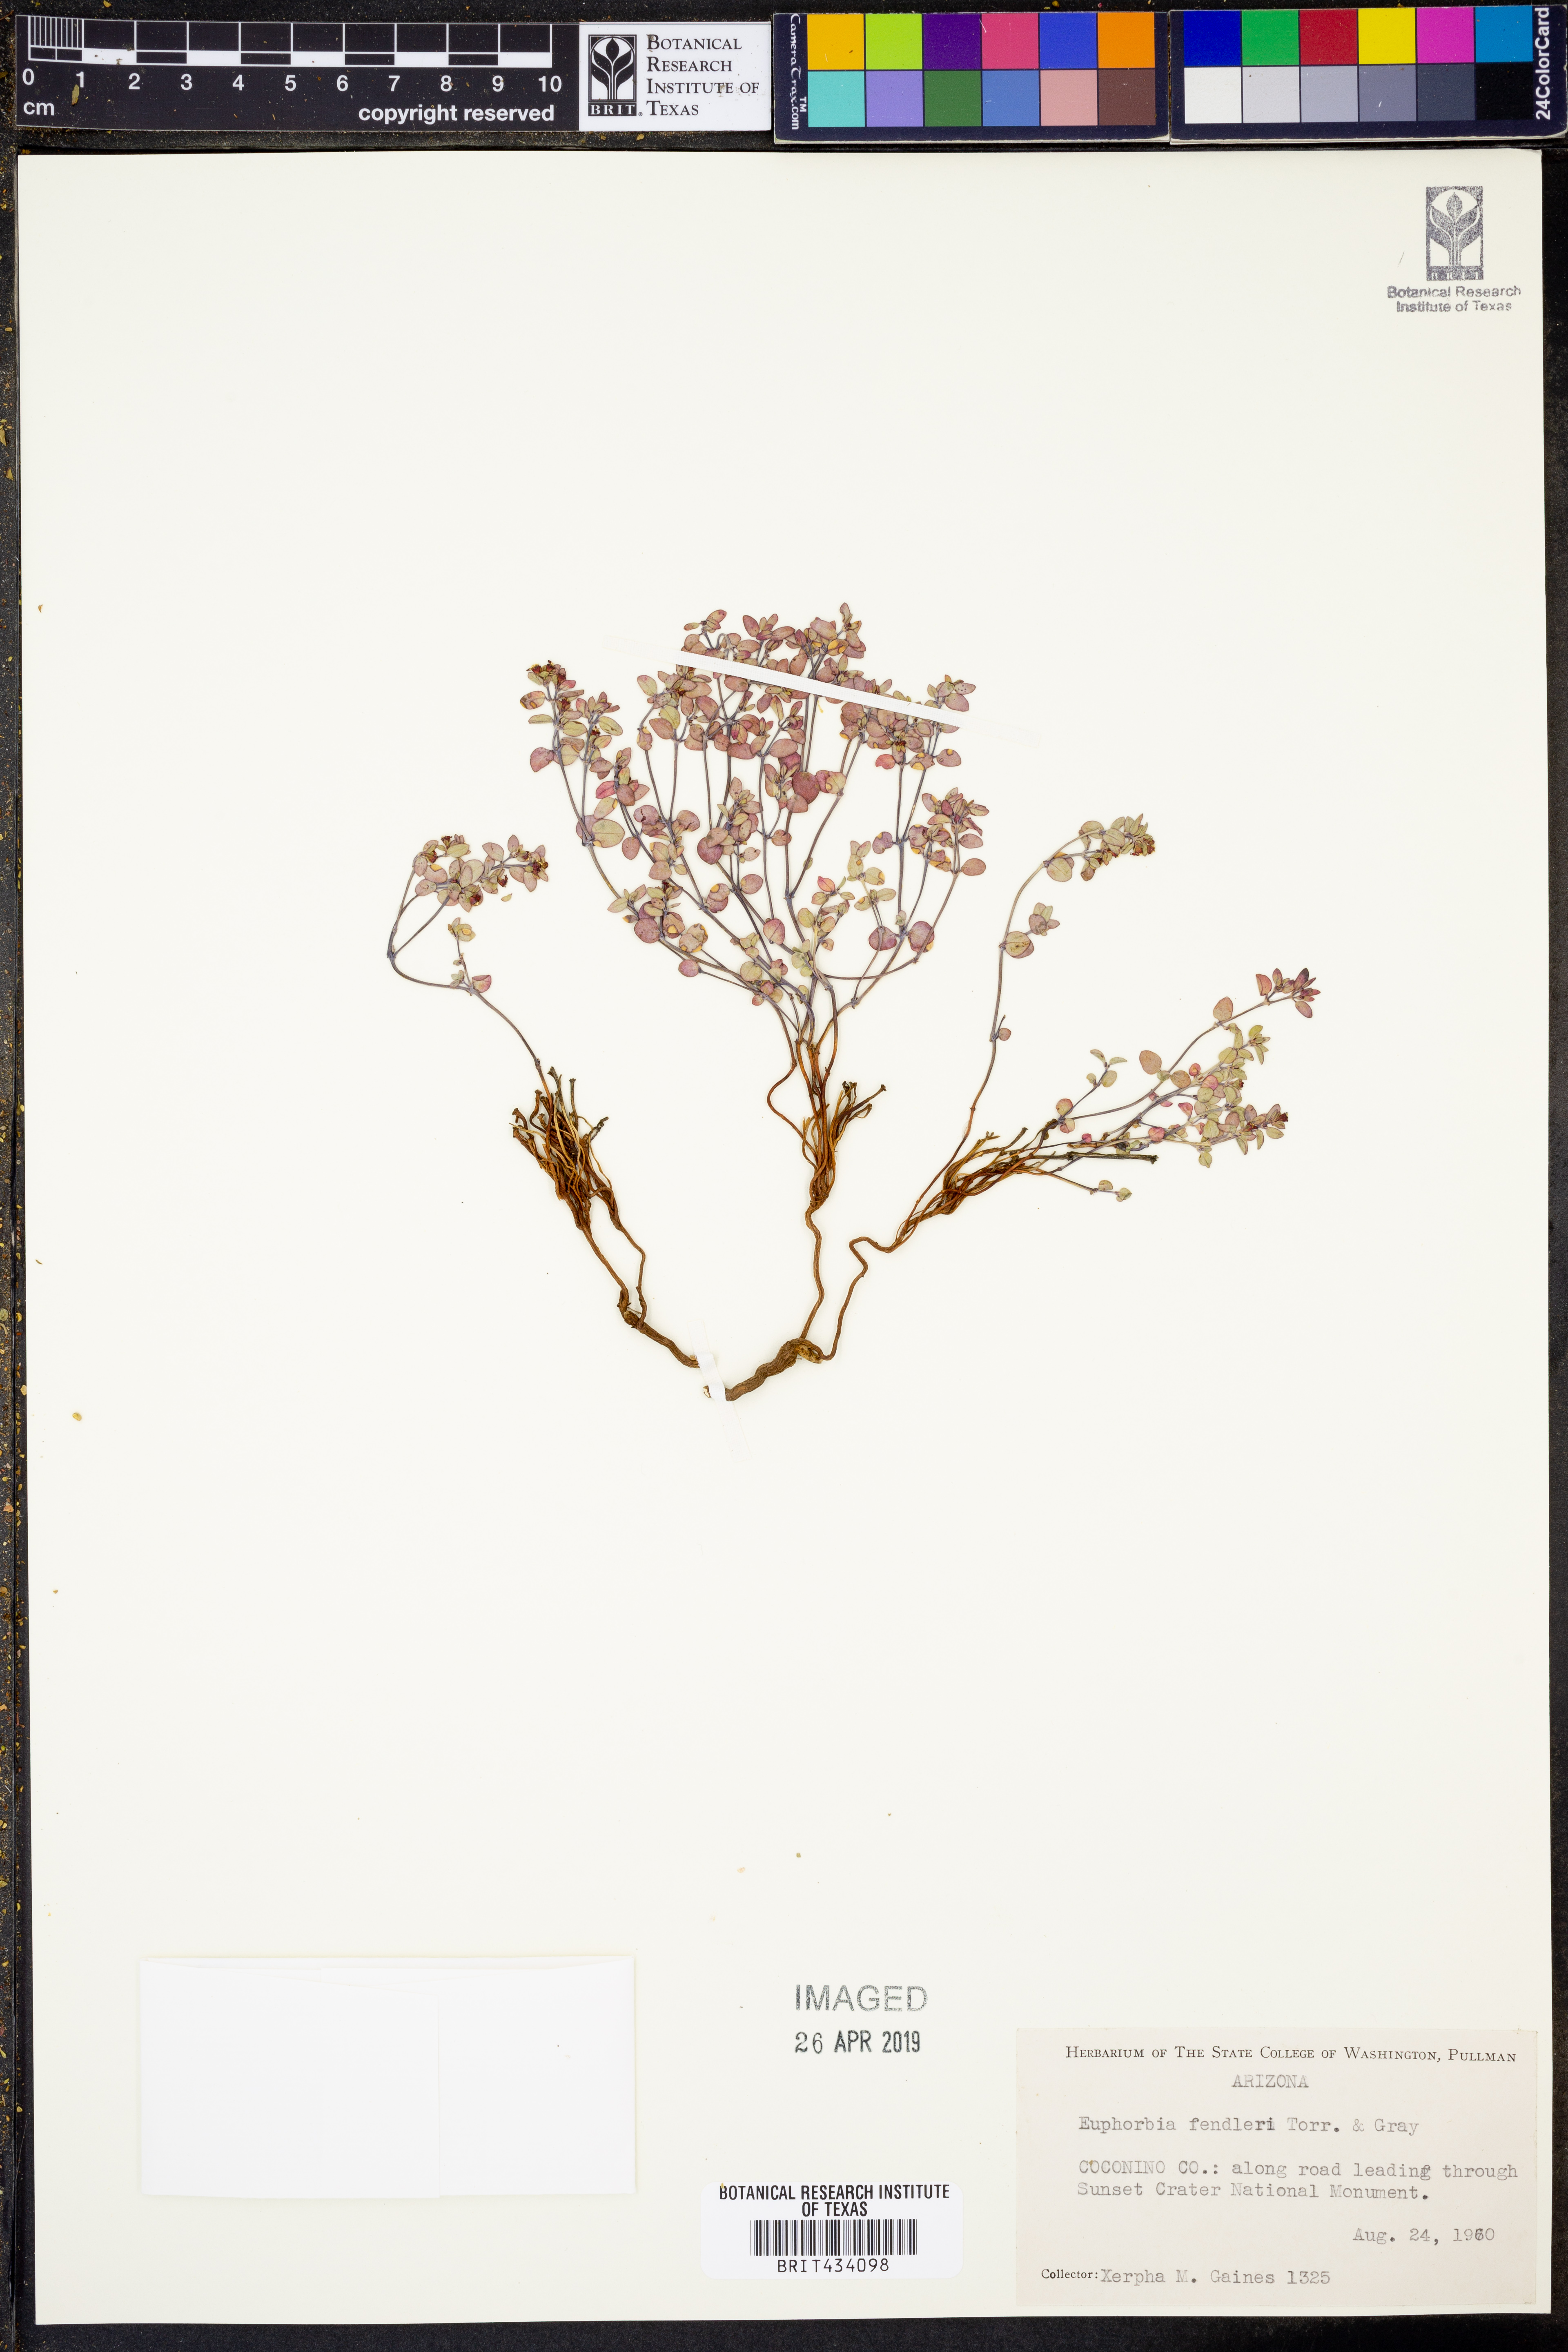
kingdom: Plantae
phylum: Tracheophyta
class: Magnoliopsida
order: Malpighiales
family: Euphorbiaceae
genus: Euphorbia
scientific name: Euphorbia fendleri
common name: Fendler's euphorbia
